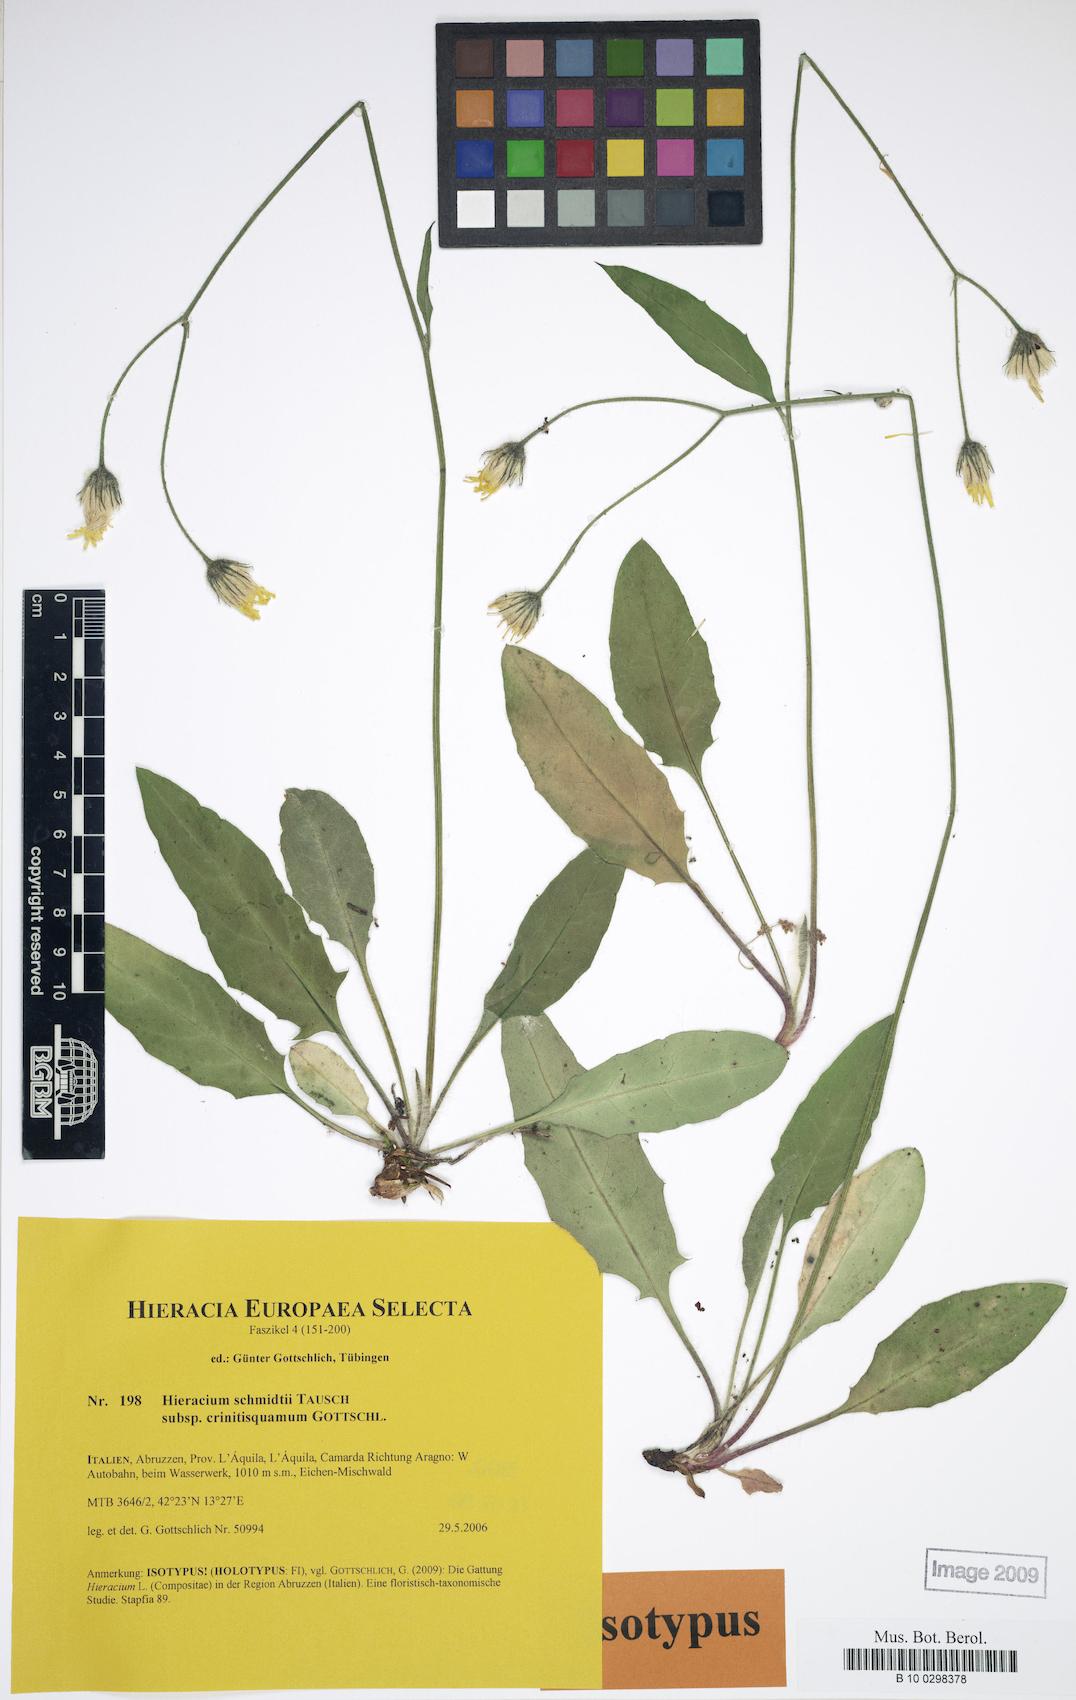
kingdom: Plantae
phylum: Tracheophyta
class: Magnoliopsida
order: Asterales
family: Asteraceae
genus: Hieracium
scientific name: Hieracium schmidtii
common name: Schmidt's hawkweed
